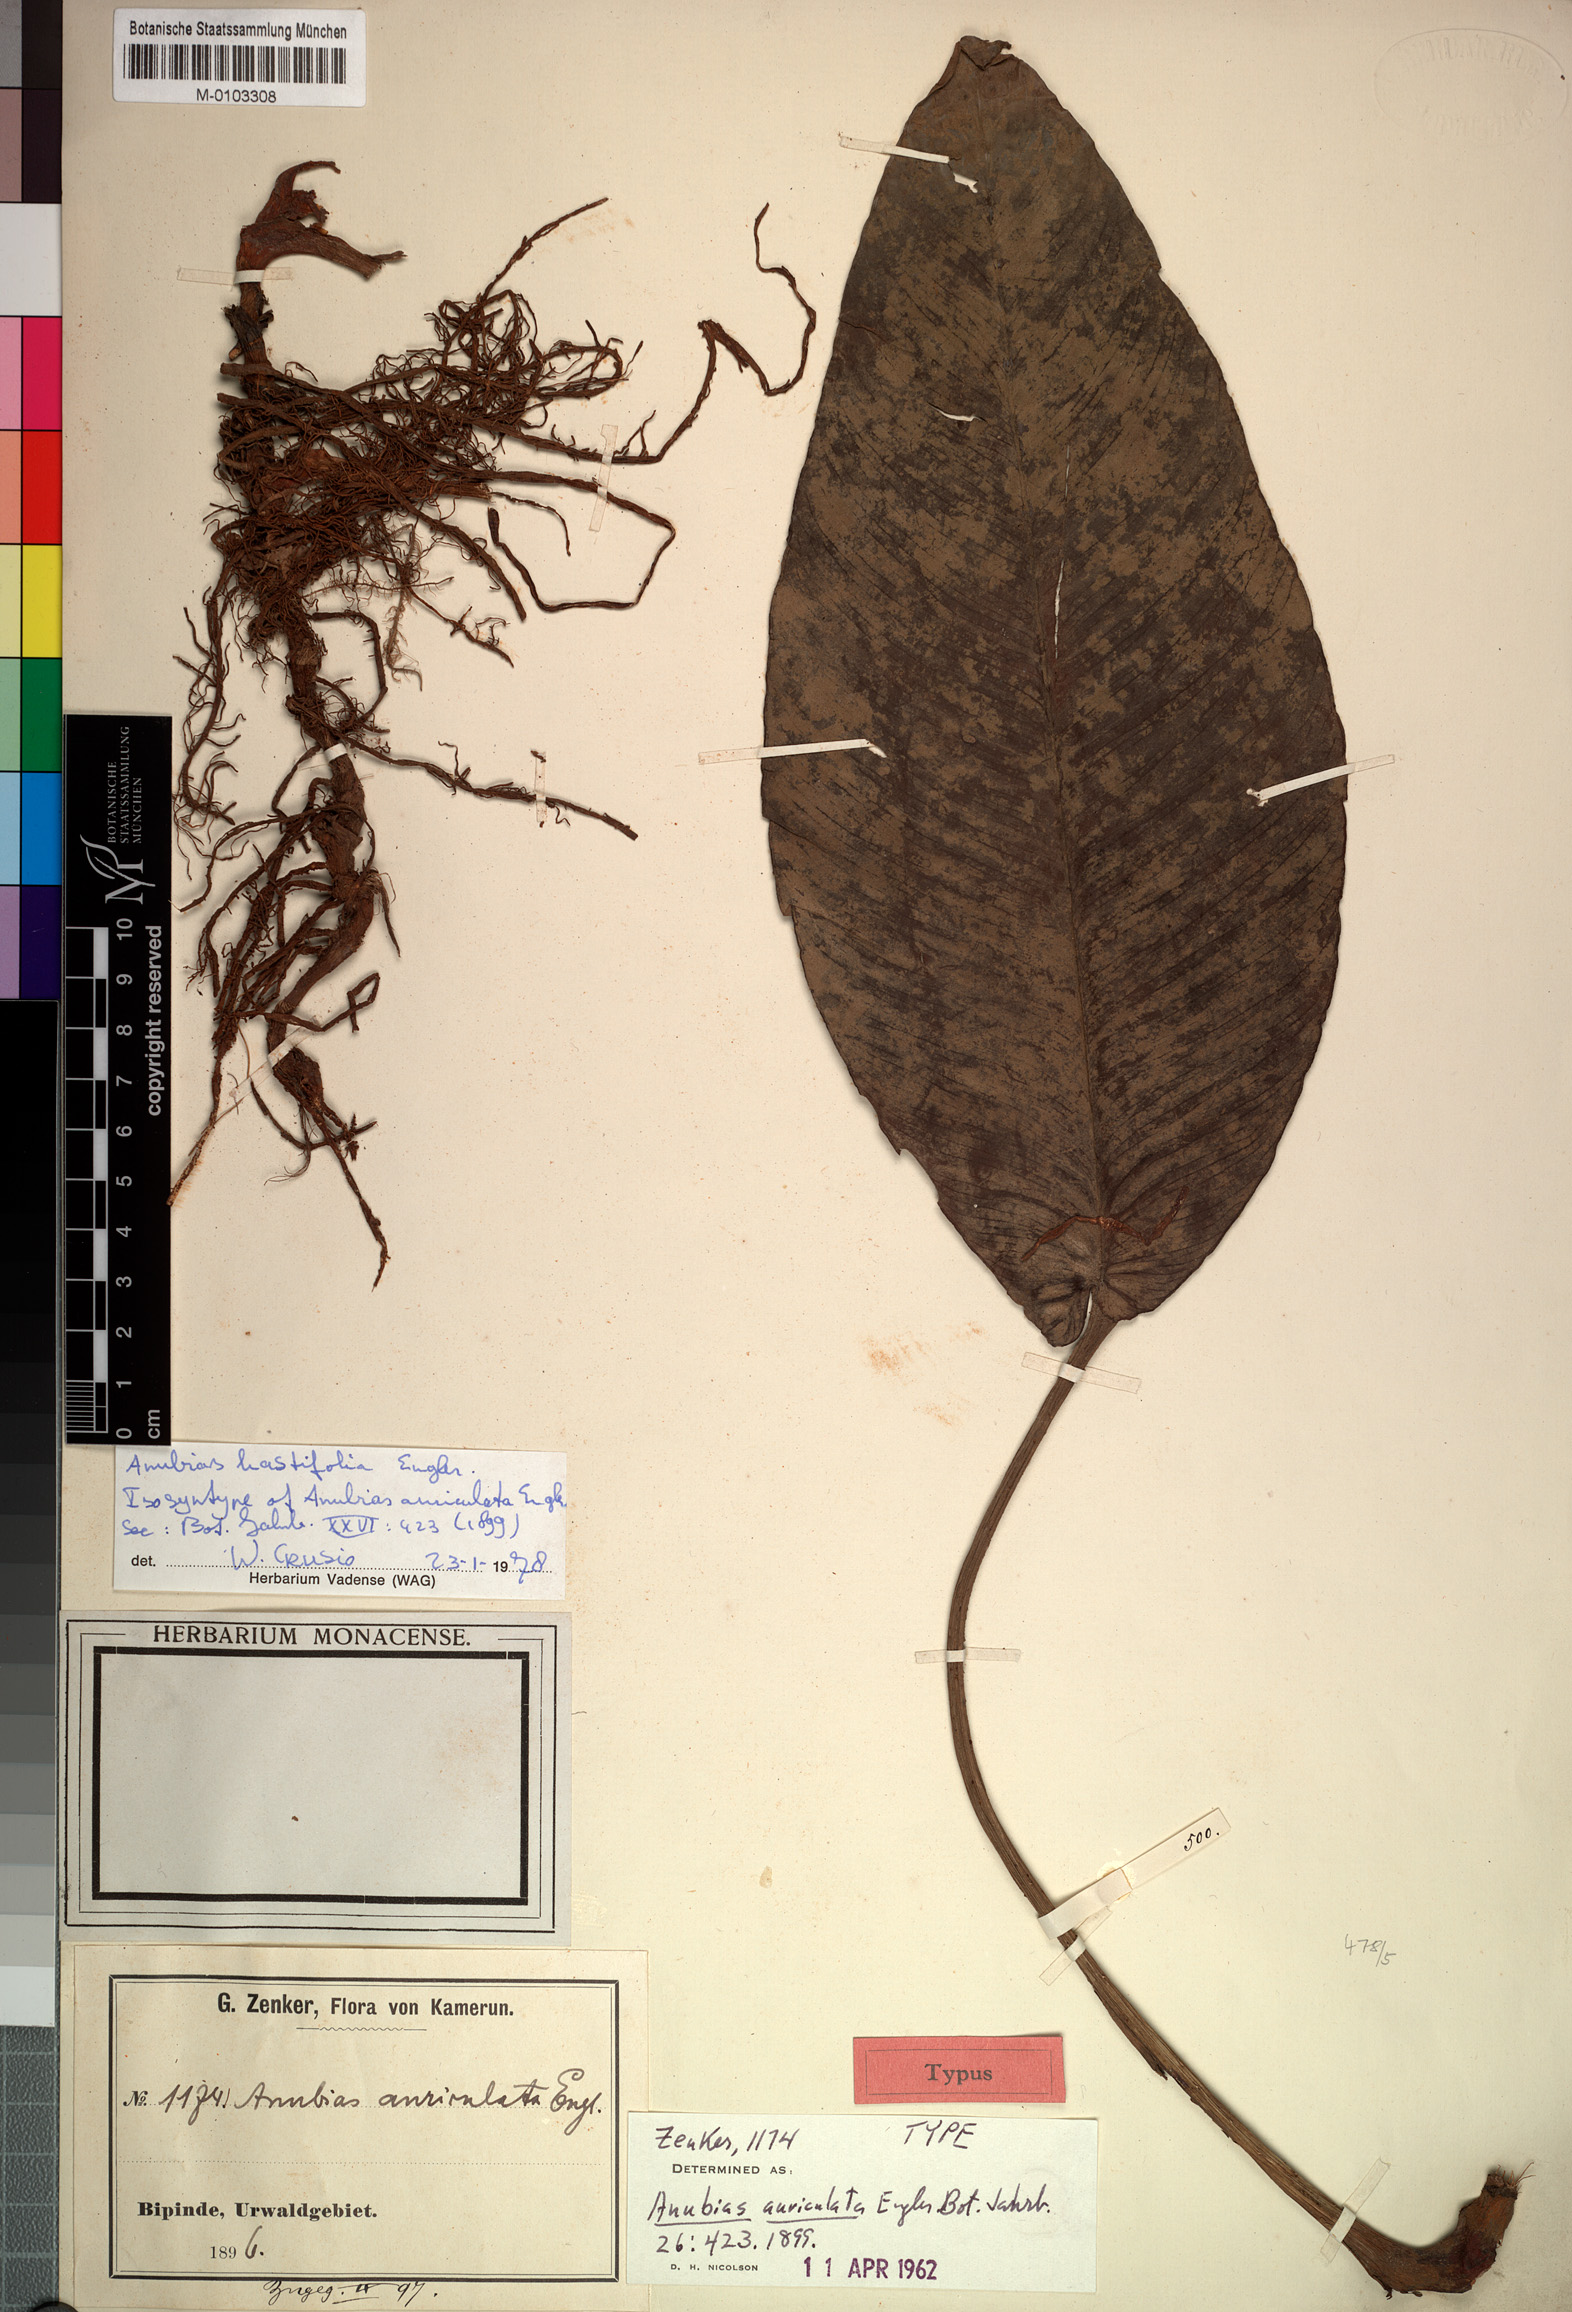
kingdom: Plantae
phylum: Tracheophyta
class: Liliopsida
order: Alismatales
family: Araceae
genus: Anubias
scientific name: Anubias hastifolia
